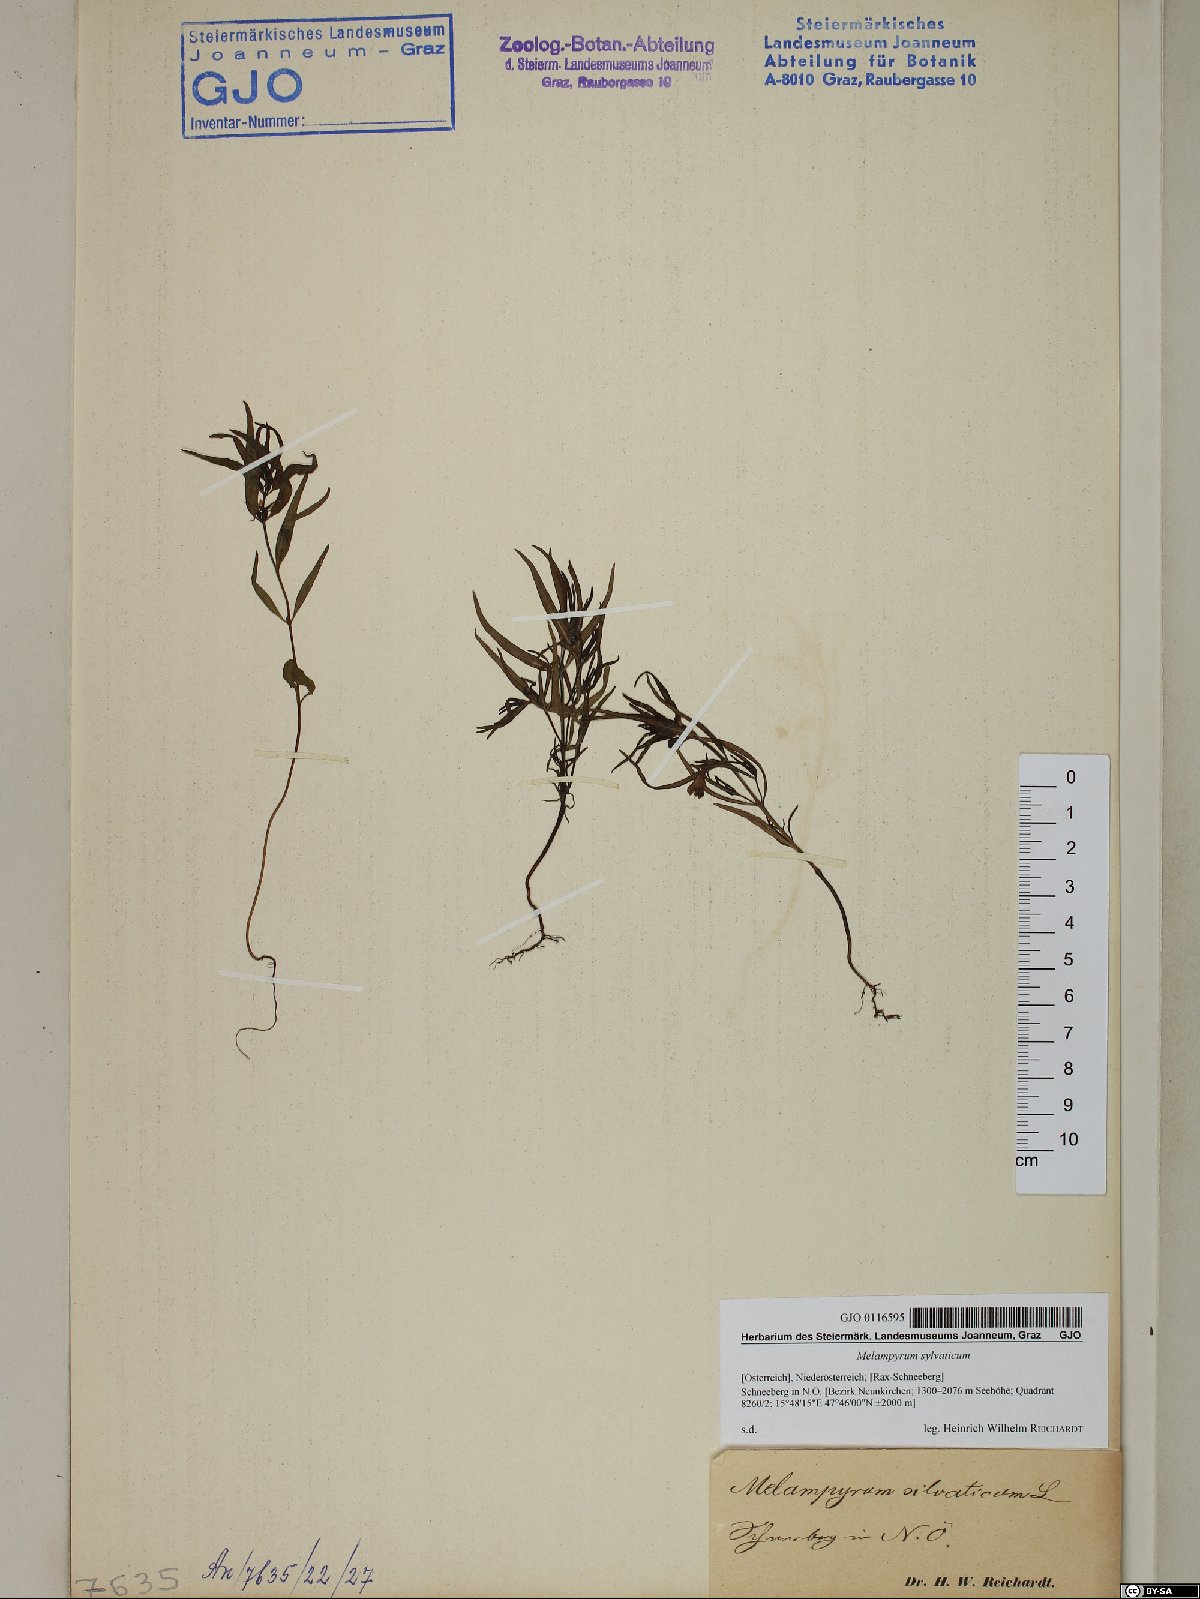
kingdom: Plantae
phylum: Tracheophyta
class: Magnoliopsida
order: Lamiales
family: Orobanchaceae
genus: Melampyrum
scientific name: Melampyrum sylvaticum
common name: Small cow-wheat
